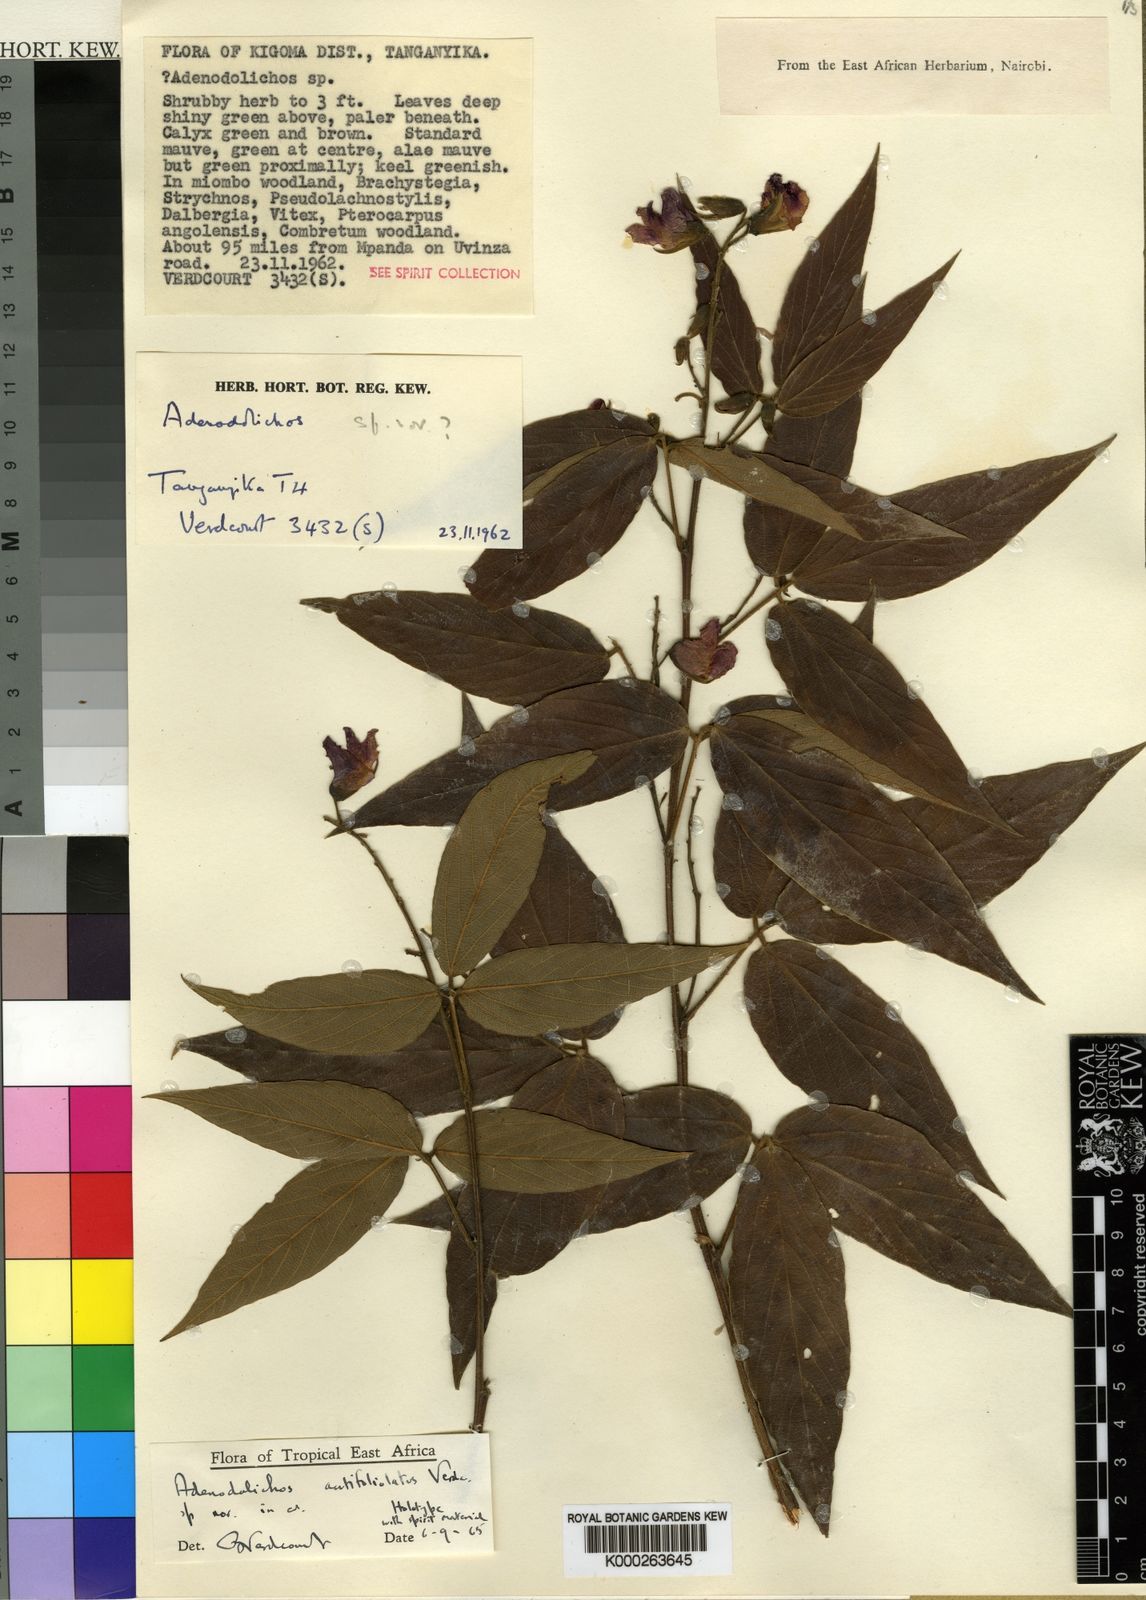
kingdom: Plantae
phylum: Tracheophyta
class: Magnoliopsida
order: Fabales
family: Fabaceae
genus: Adenodolichos
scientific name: Adenodolichos
